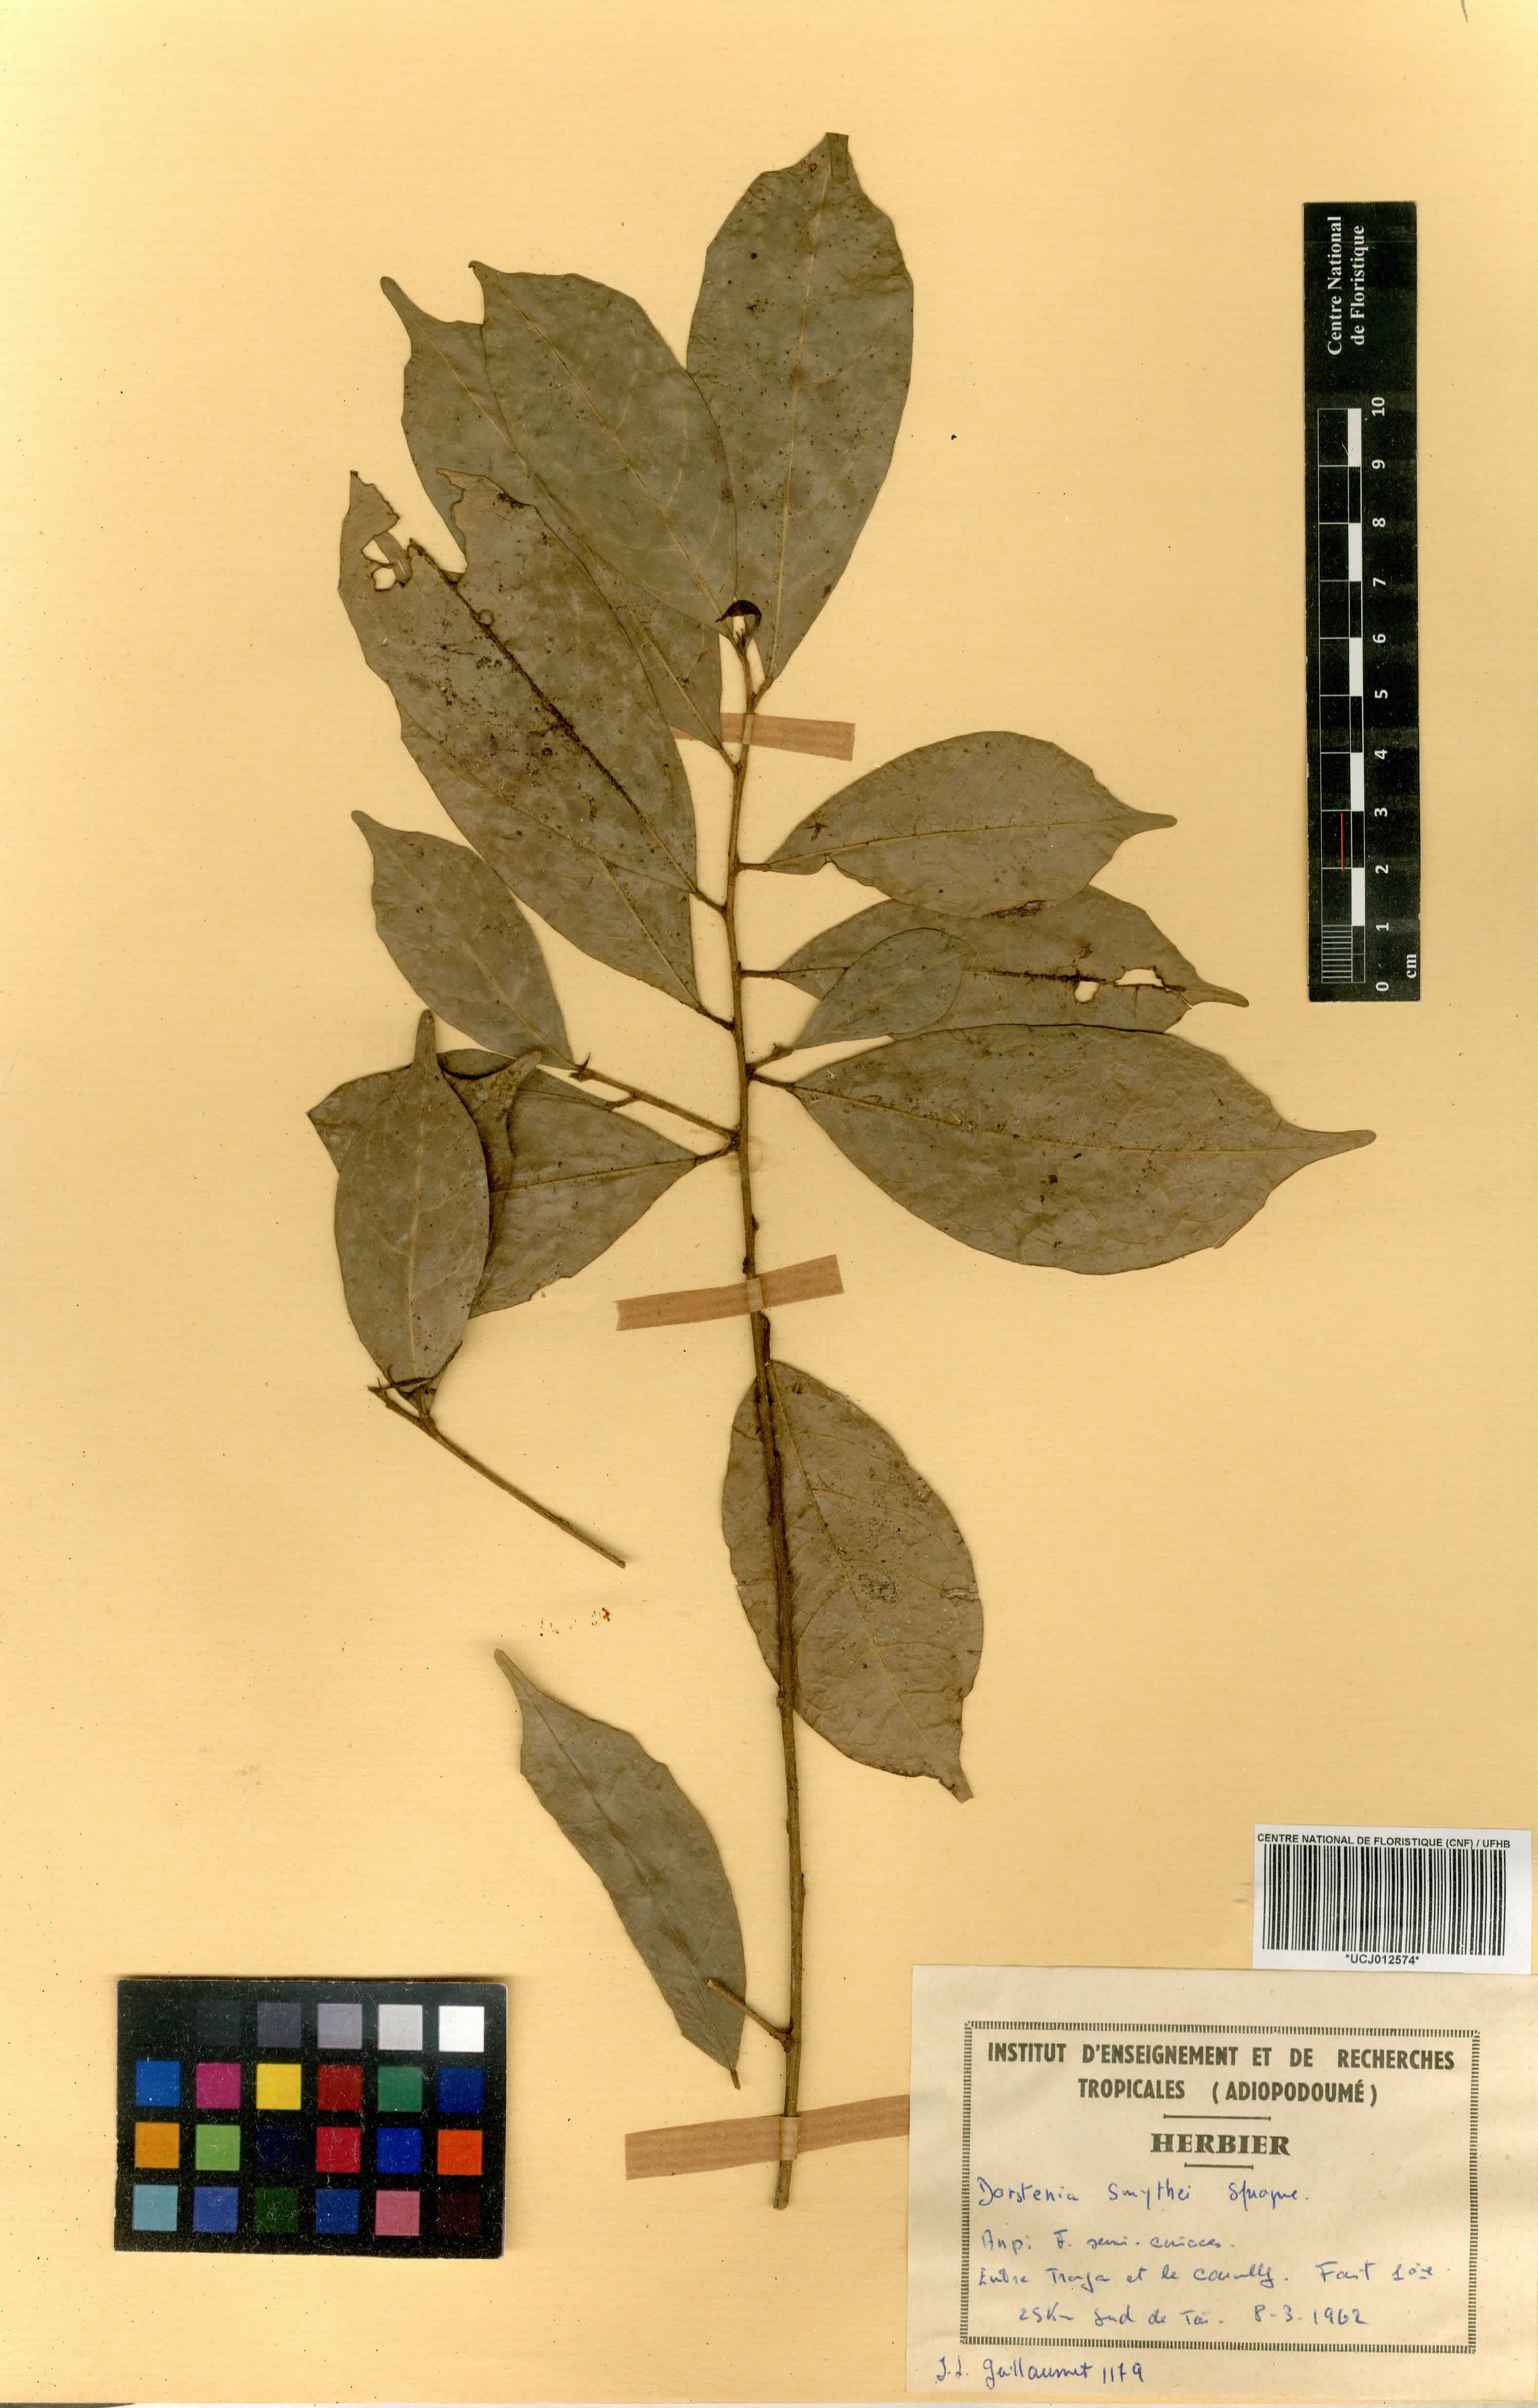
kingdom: Plantae
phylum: Tracheophyta
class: Magnoliopsida
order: Rosales
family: Moraceae
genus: Hijmania
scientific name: Hijmania turbinata
